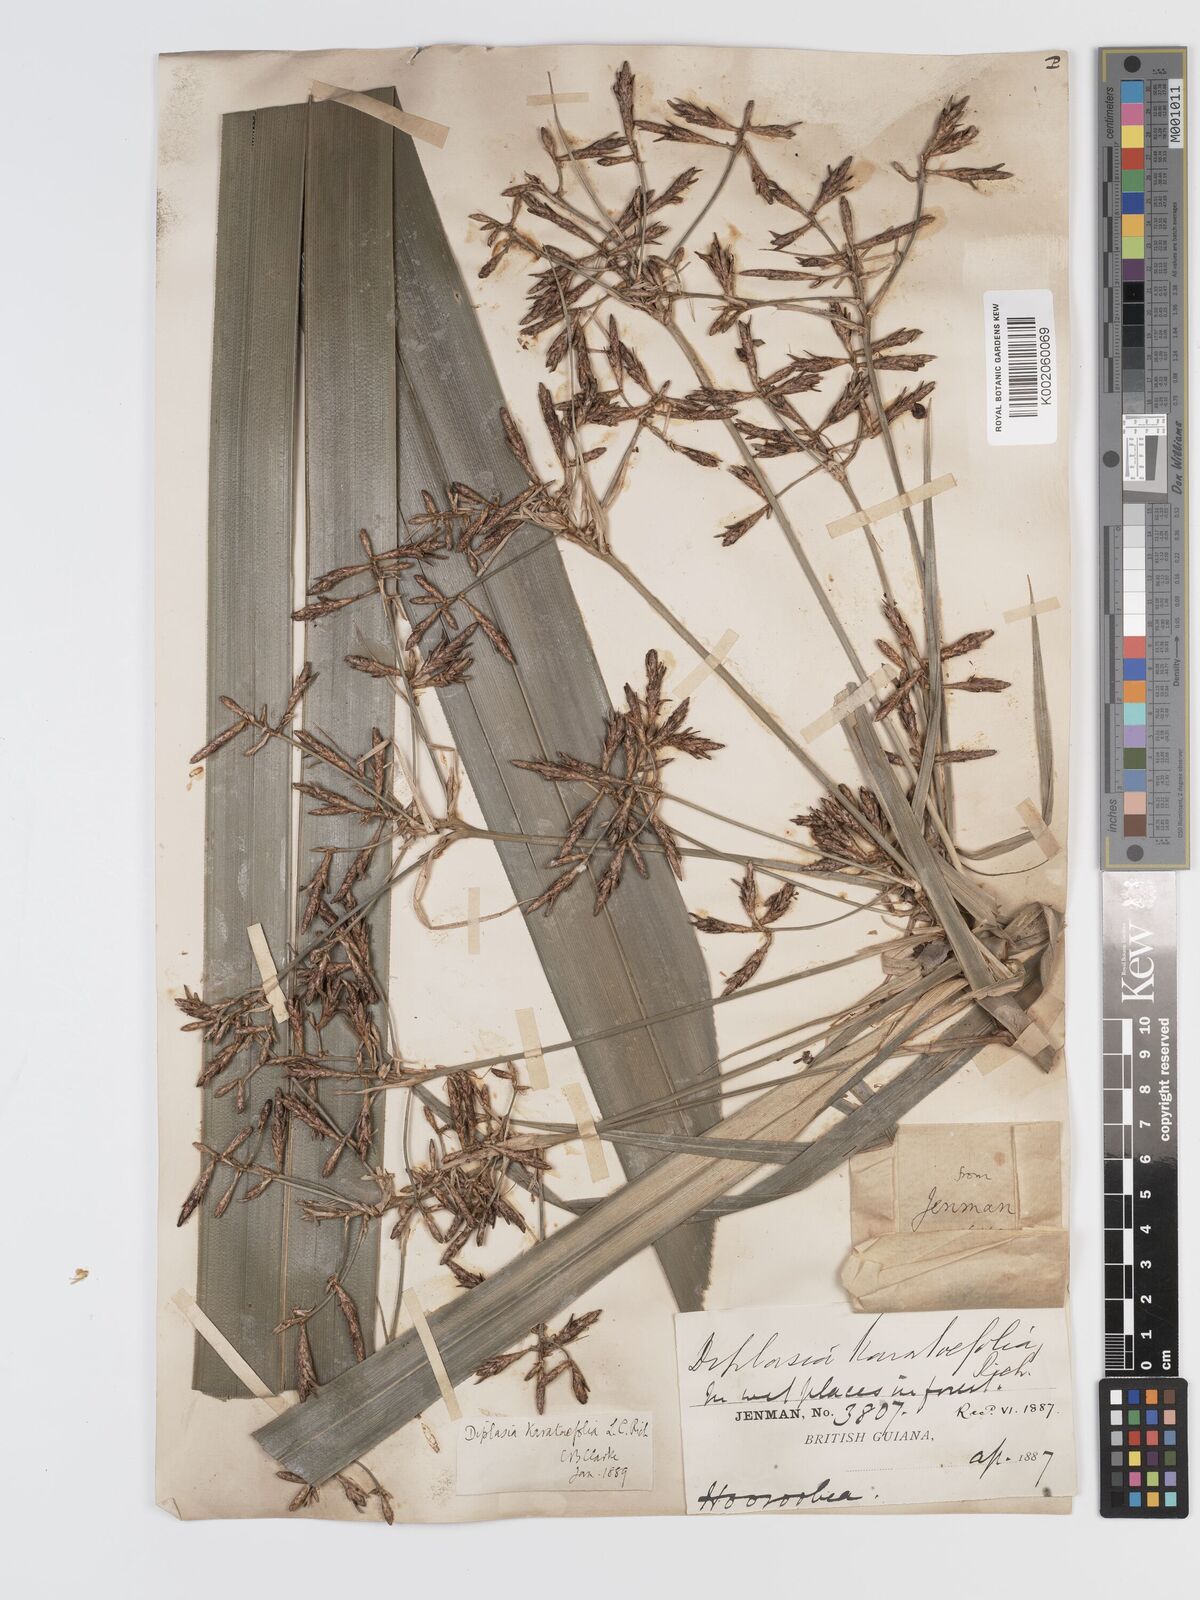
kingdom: Plantae
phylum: Tracheophyta
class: Liliopsida
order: Poales
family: Cyperaceae
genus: Diplasia
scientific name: Diplasia karatifolia
